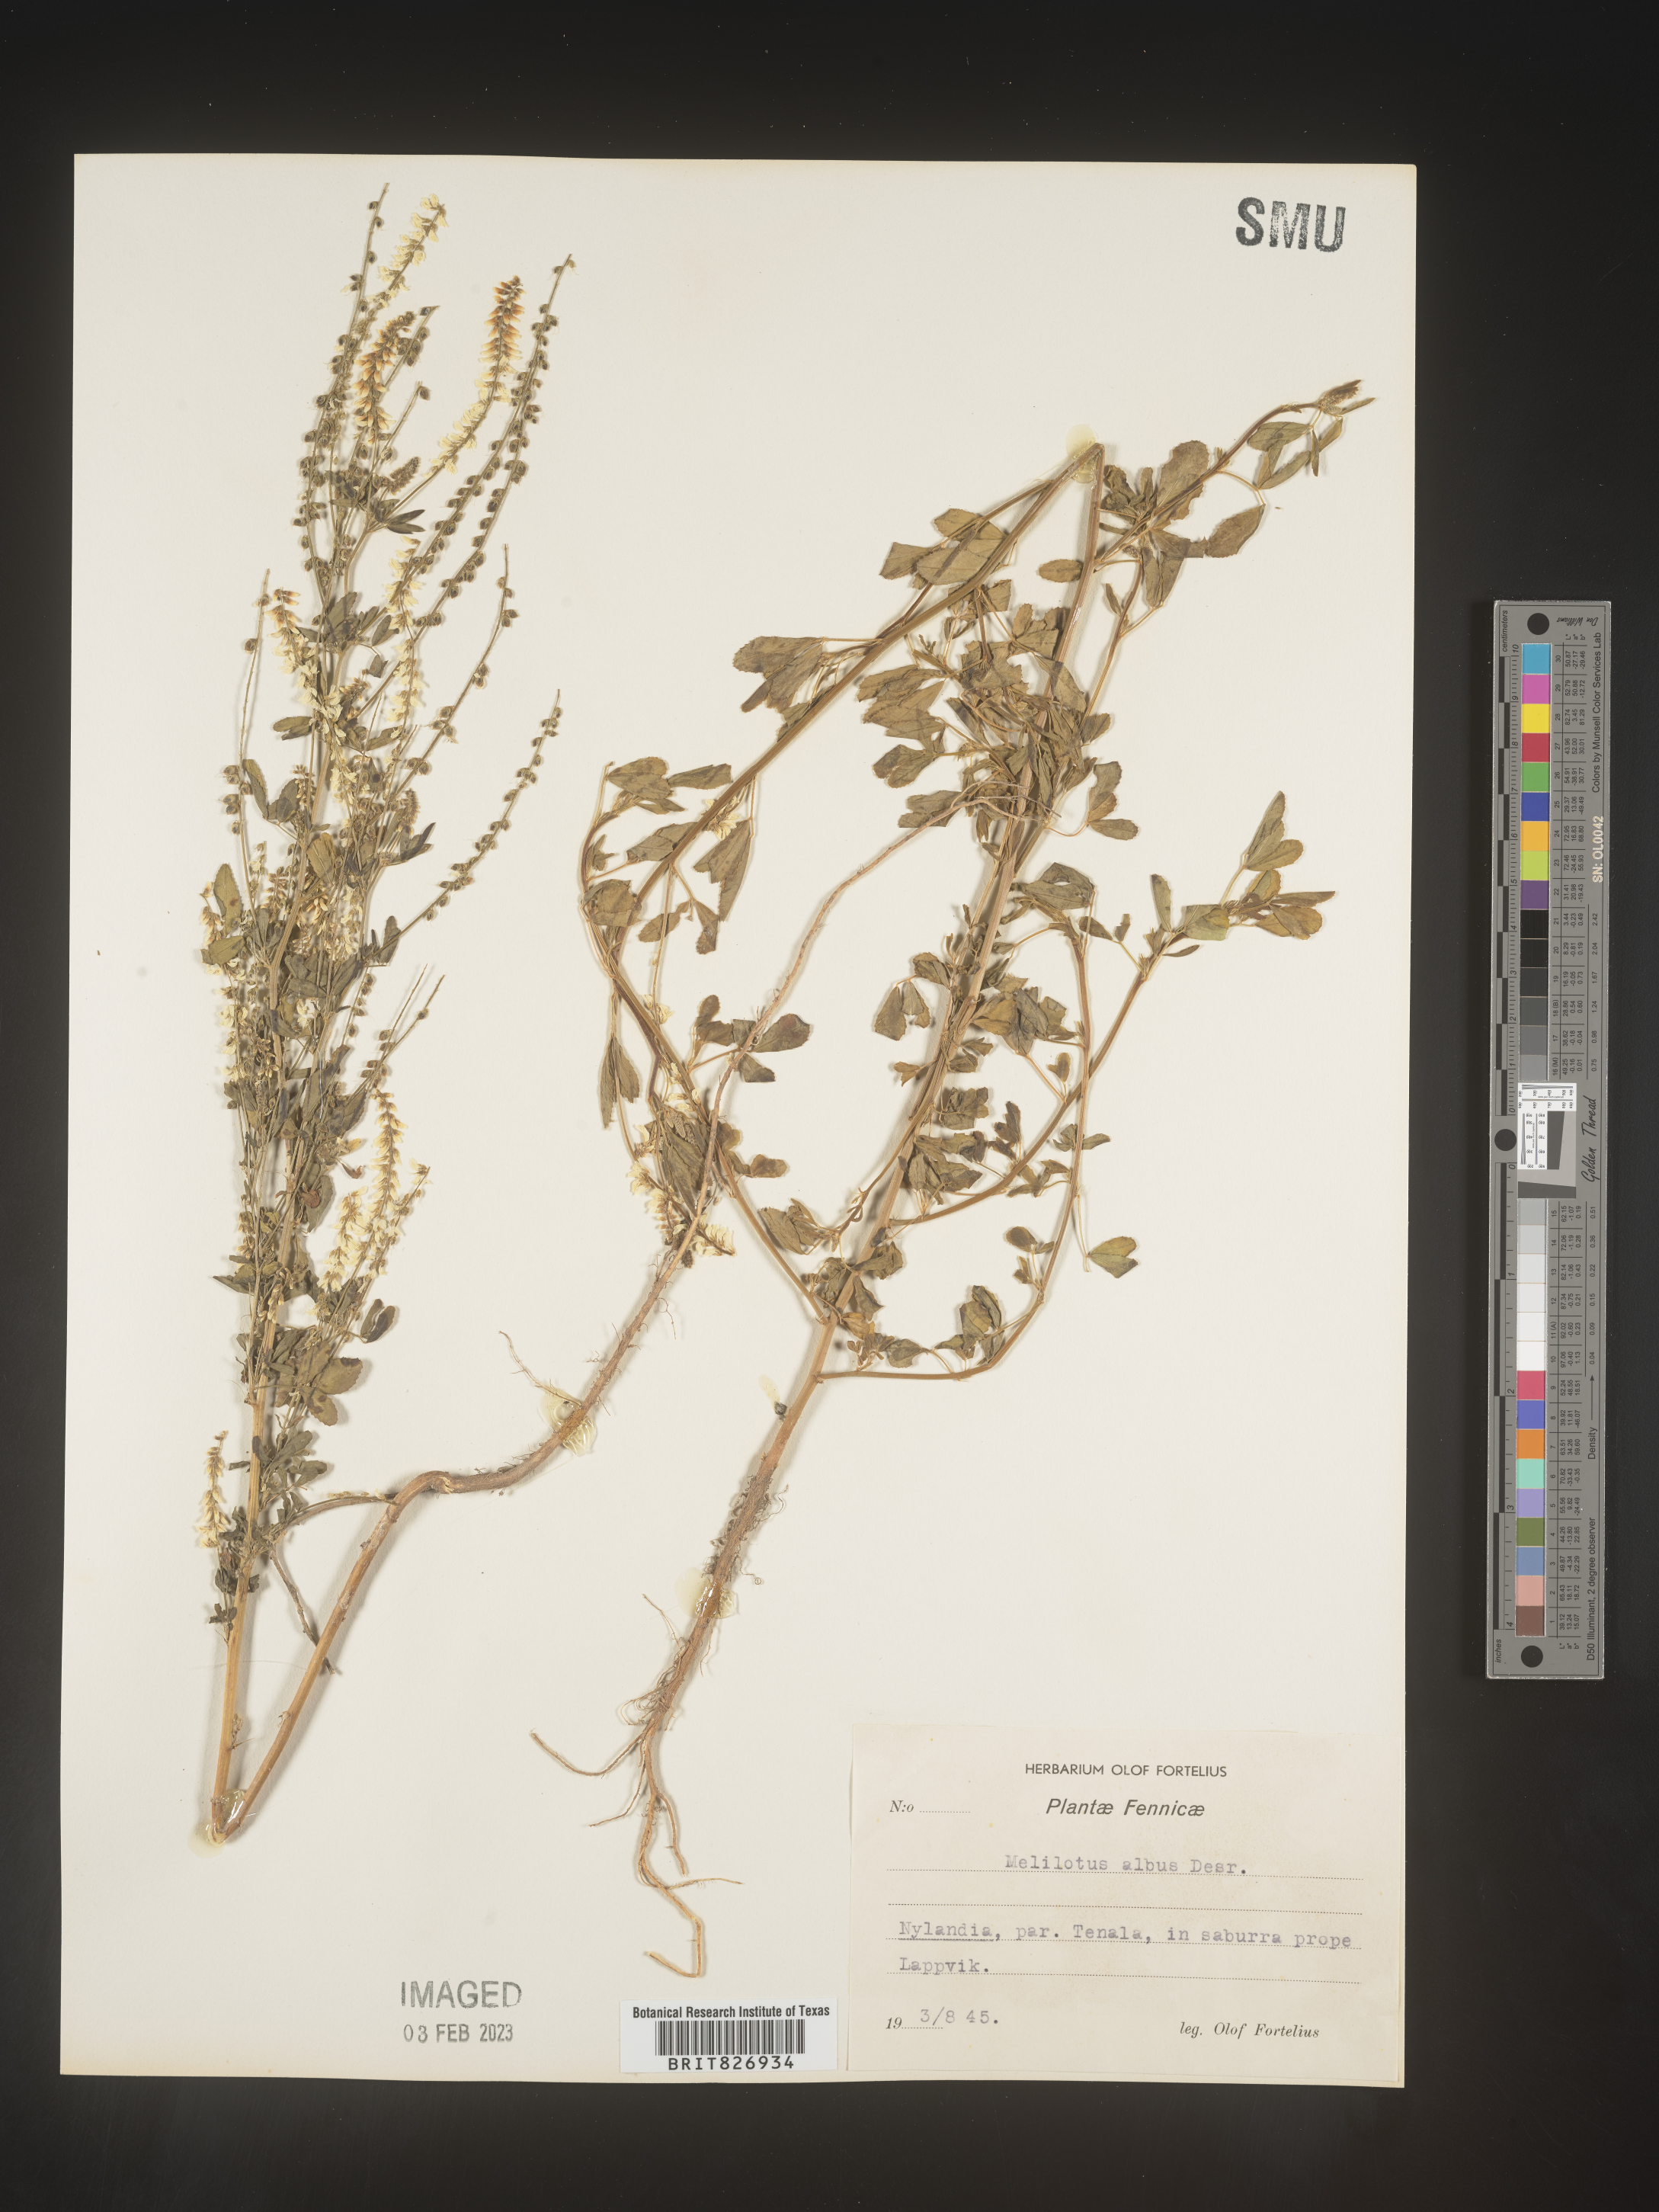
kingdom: Plantae
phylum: Tracheophyta
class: Magnoliopsida
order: Fabales
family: Fabaceae
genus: Melilotus
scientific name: Melilotus
